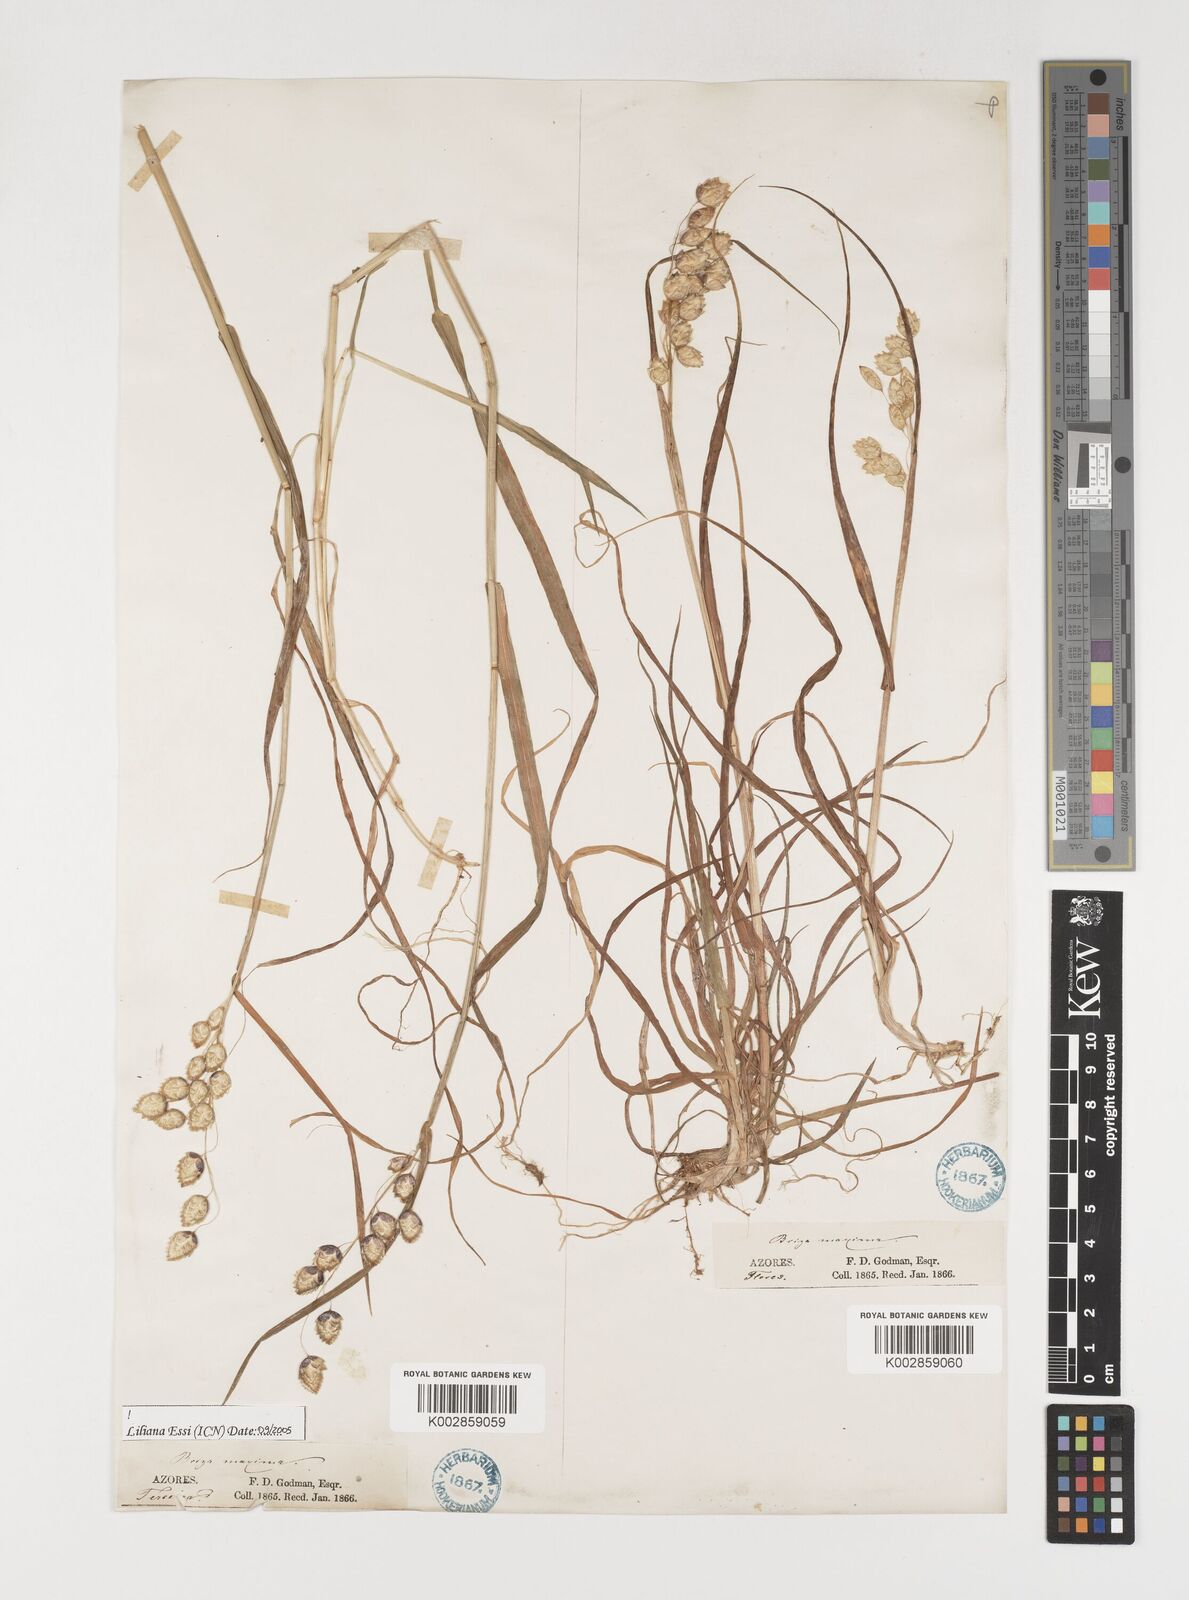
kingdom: Plantae
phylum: Tracheophyta
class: Liliopsida
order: Poales
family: Poaceae
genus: Briza
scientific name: Briza maxima
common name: Big quakinggrass
